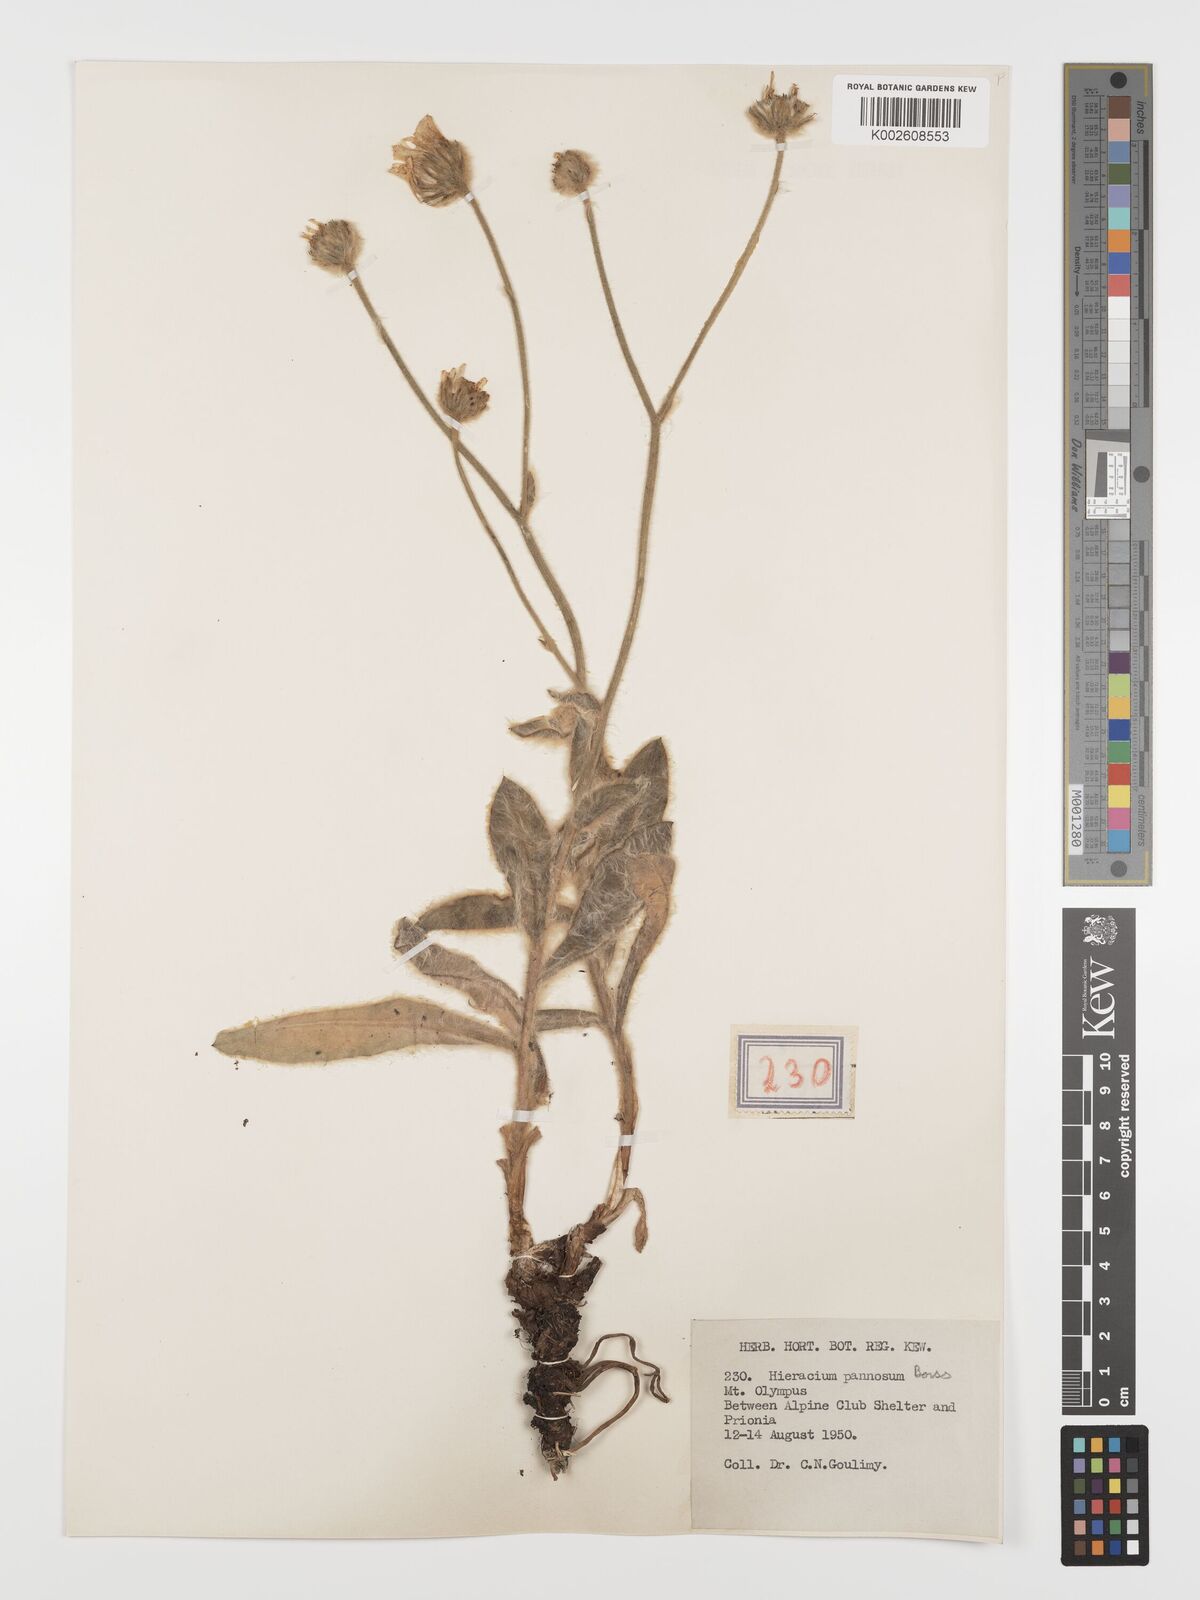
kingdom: Plantae
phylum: Tracheophyta
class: Magnoliopsida
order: Asterales
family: Asteraceae
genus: Hieracium
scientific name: Hieracium pannosum
